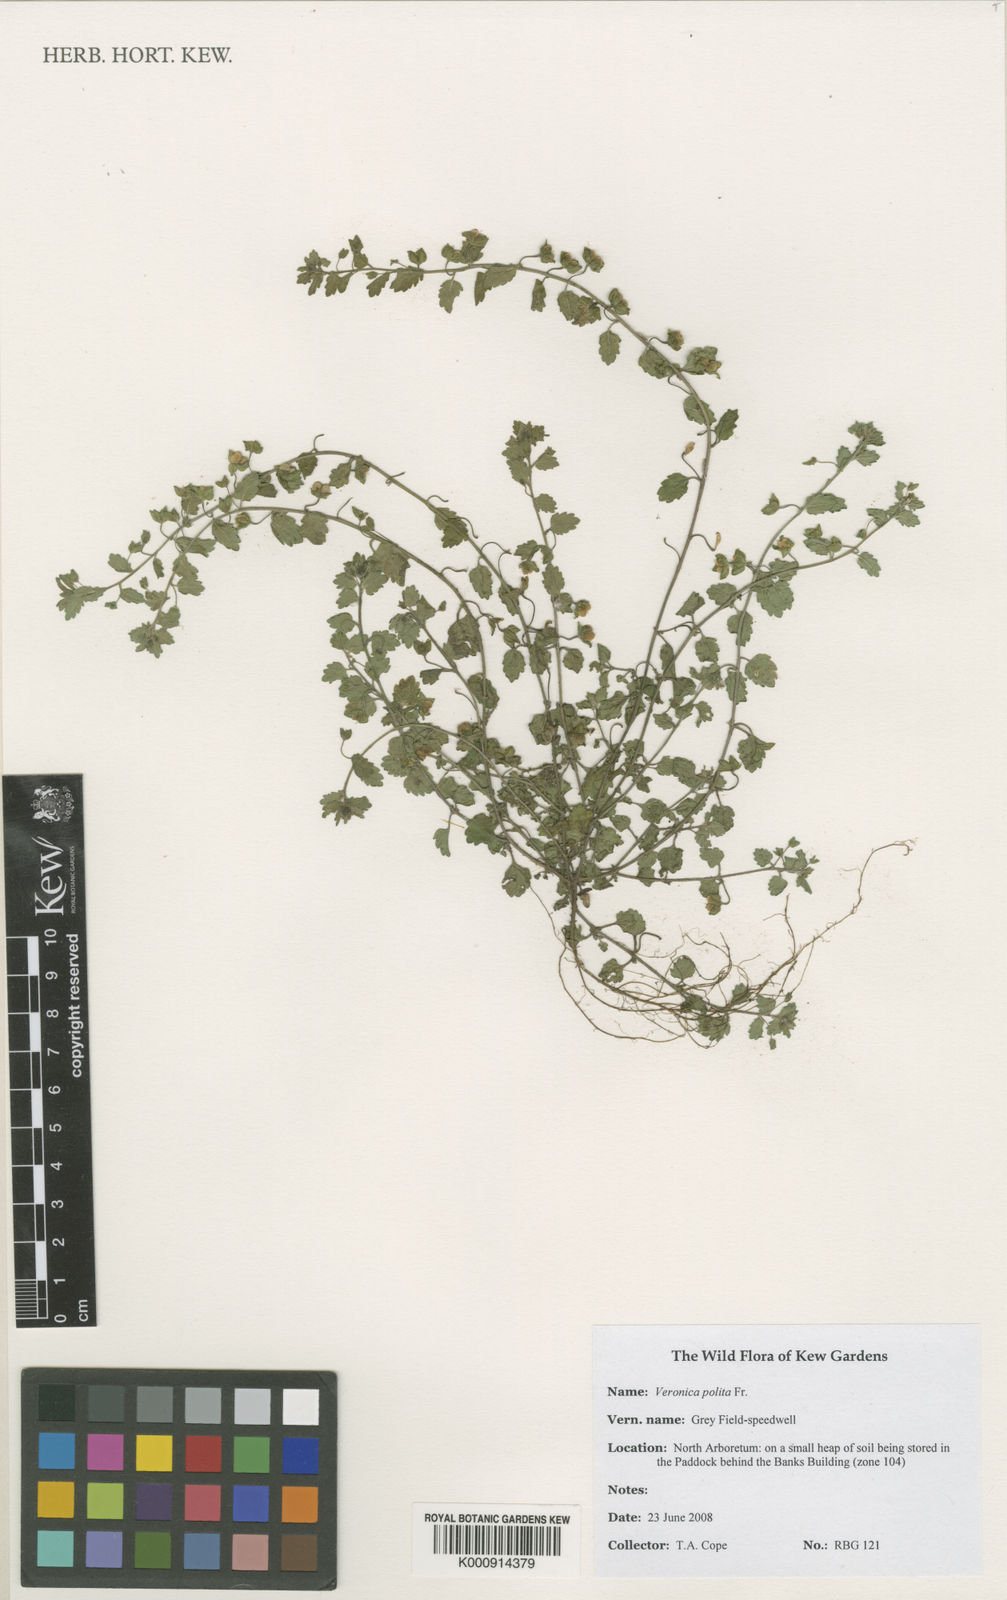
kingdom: Plantae
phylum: Tracheophyta
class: Magnoliopsida
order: Lamiales
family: Plantaginaceae
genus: Veronica
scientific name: Veronica polita
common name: Grey field-speedwell
